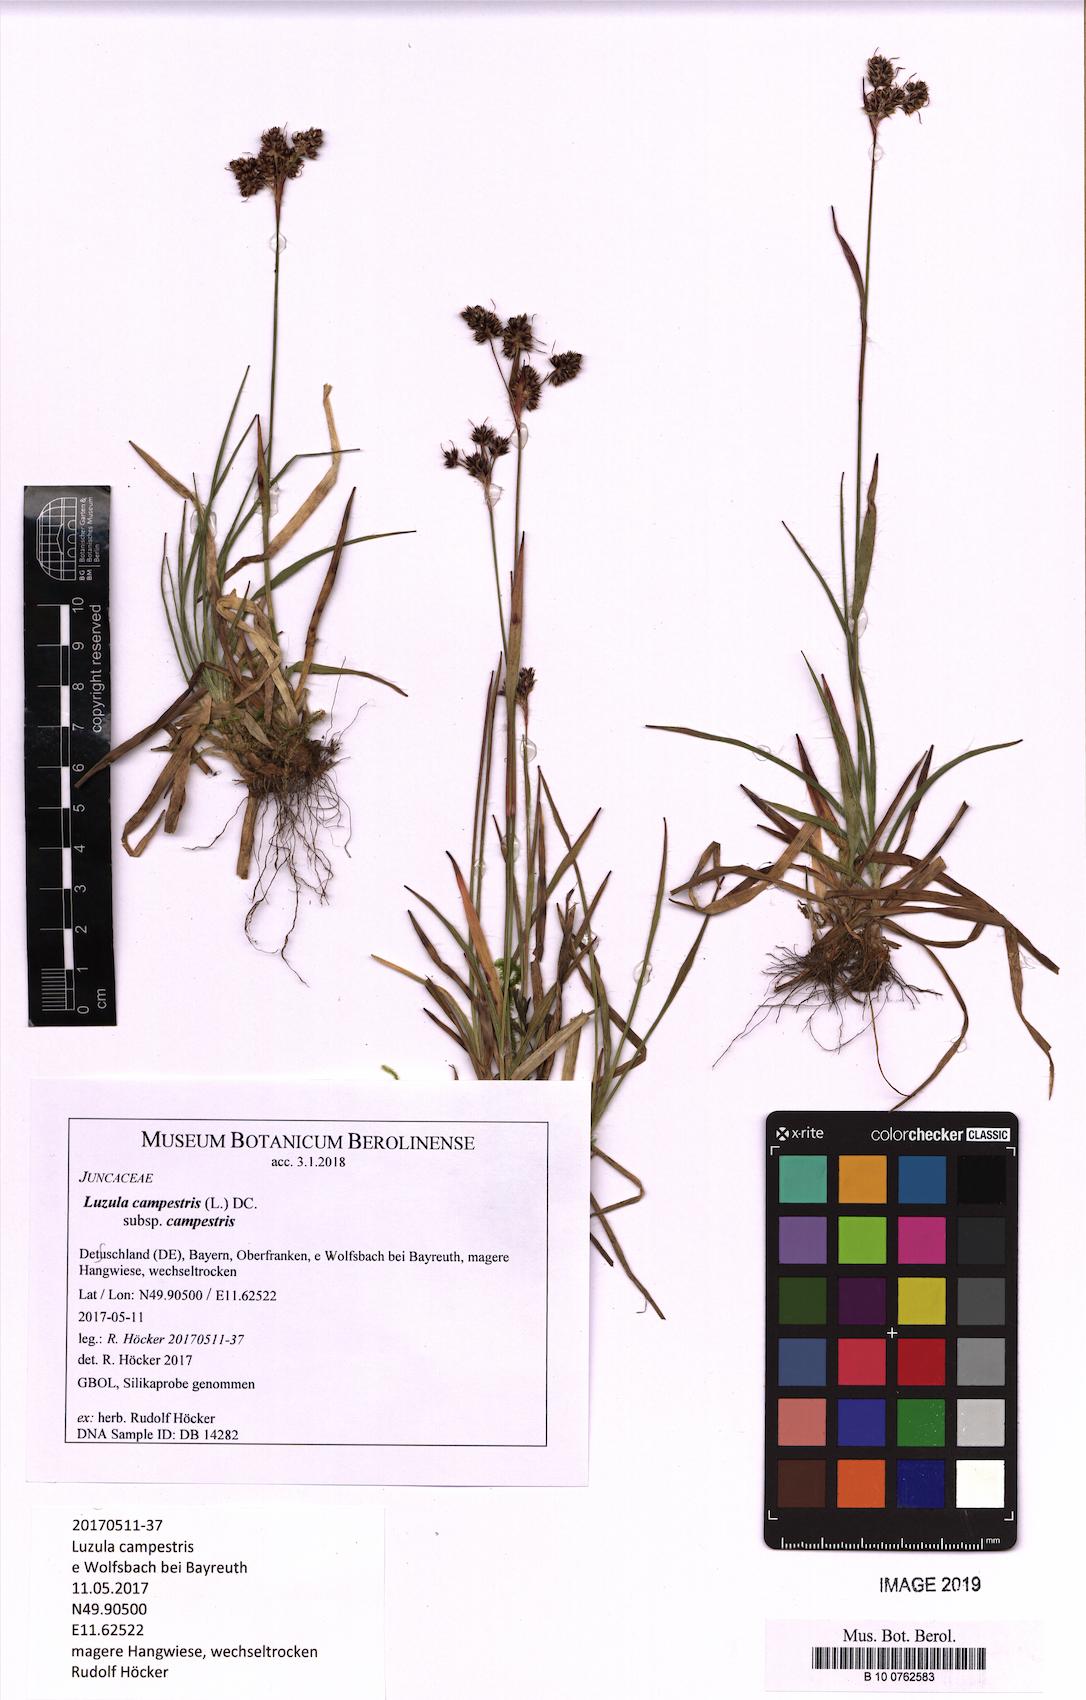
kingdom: Plantae
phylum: Tracheophyta
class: Liliopsida
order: Poales
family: Juncaceae
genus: Luzula
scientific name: Luzula campestris
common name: Field wood-rush
